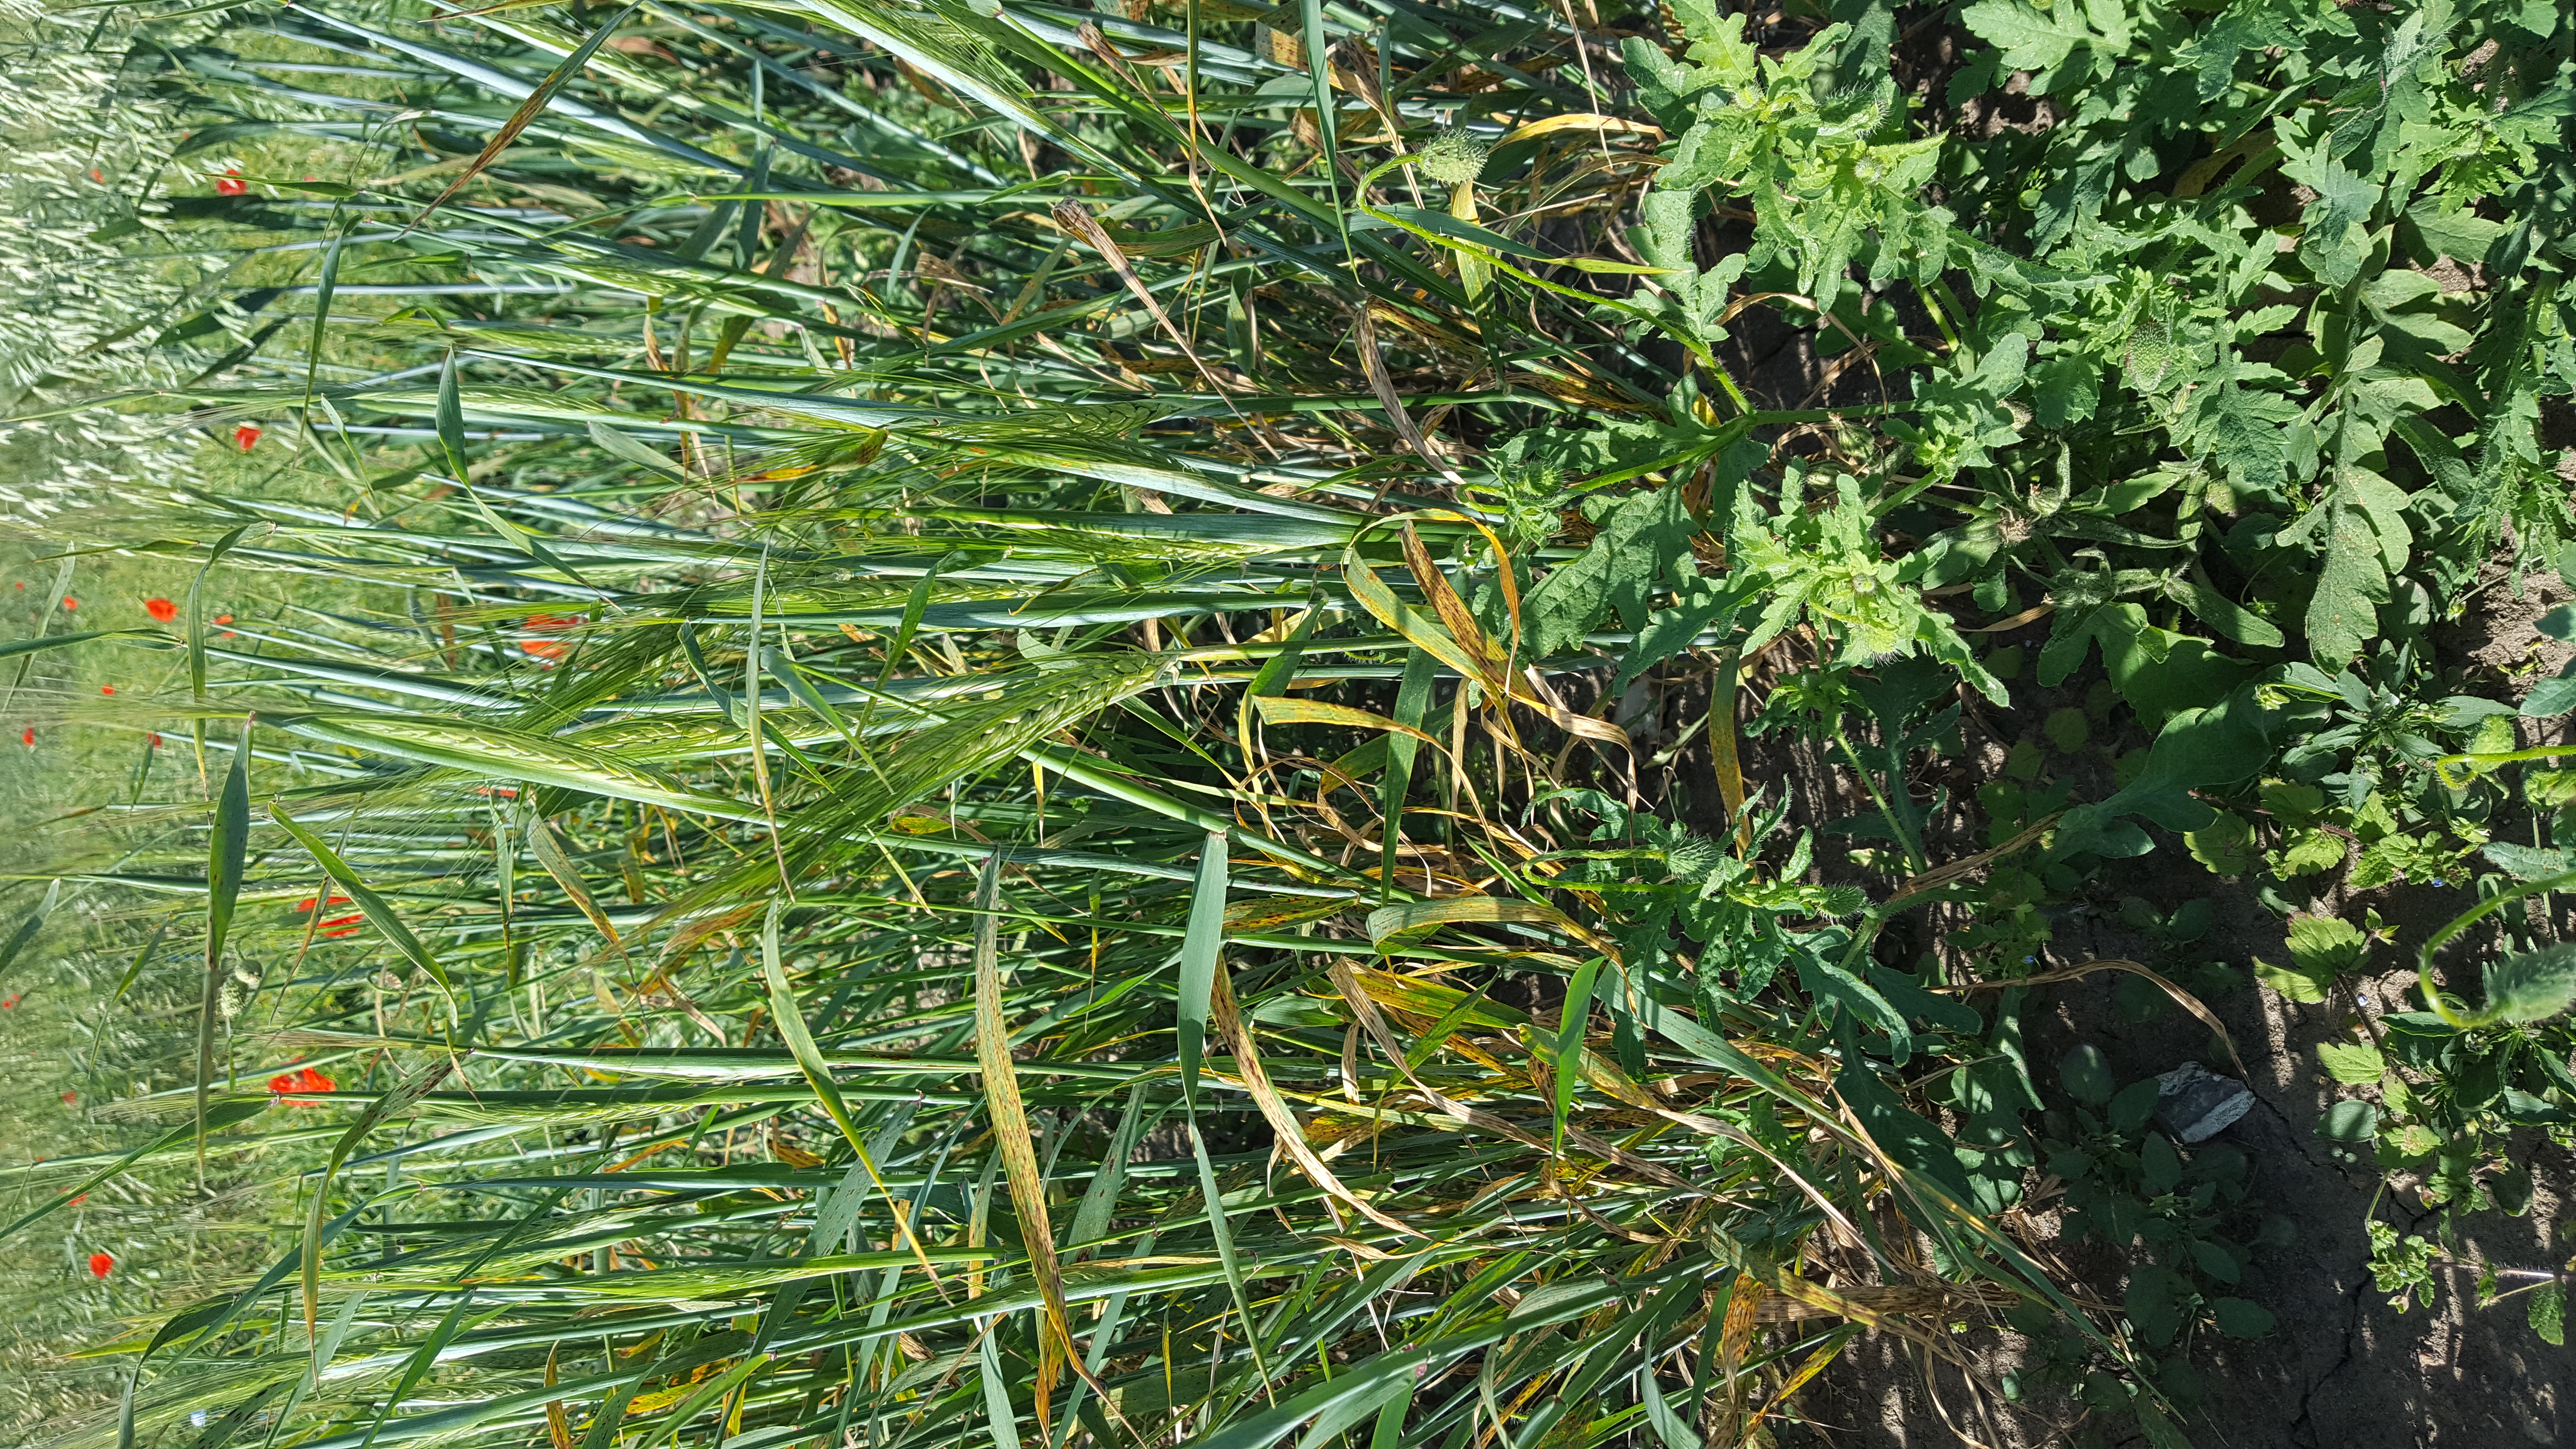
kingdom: Plantae
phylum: Tracheophyta
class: Liliopsida
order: Poales
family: Poaceae
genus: Hordeum
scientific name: Hordeum vulgare
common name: Common barley
